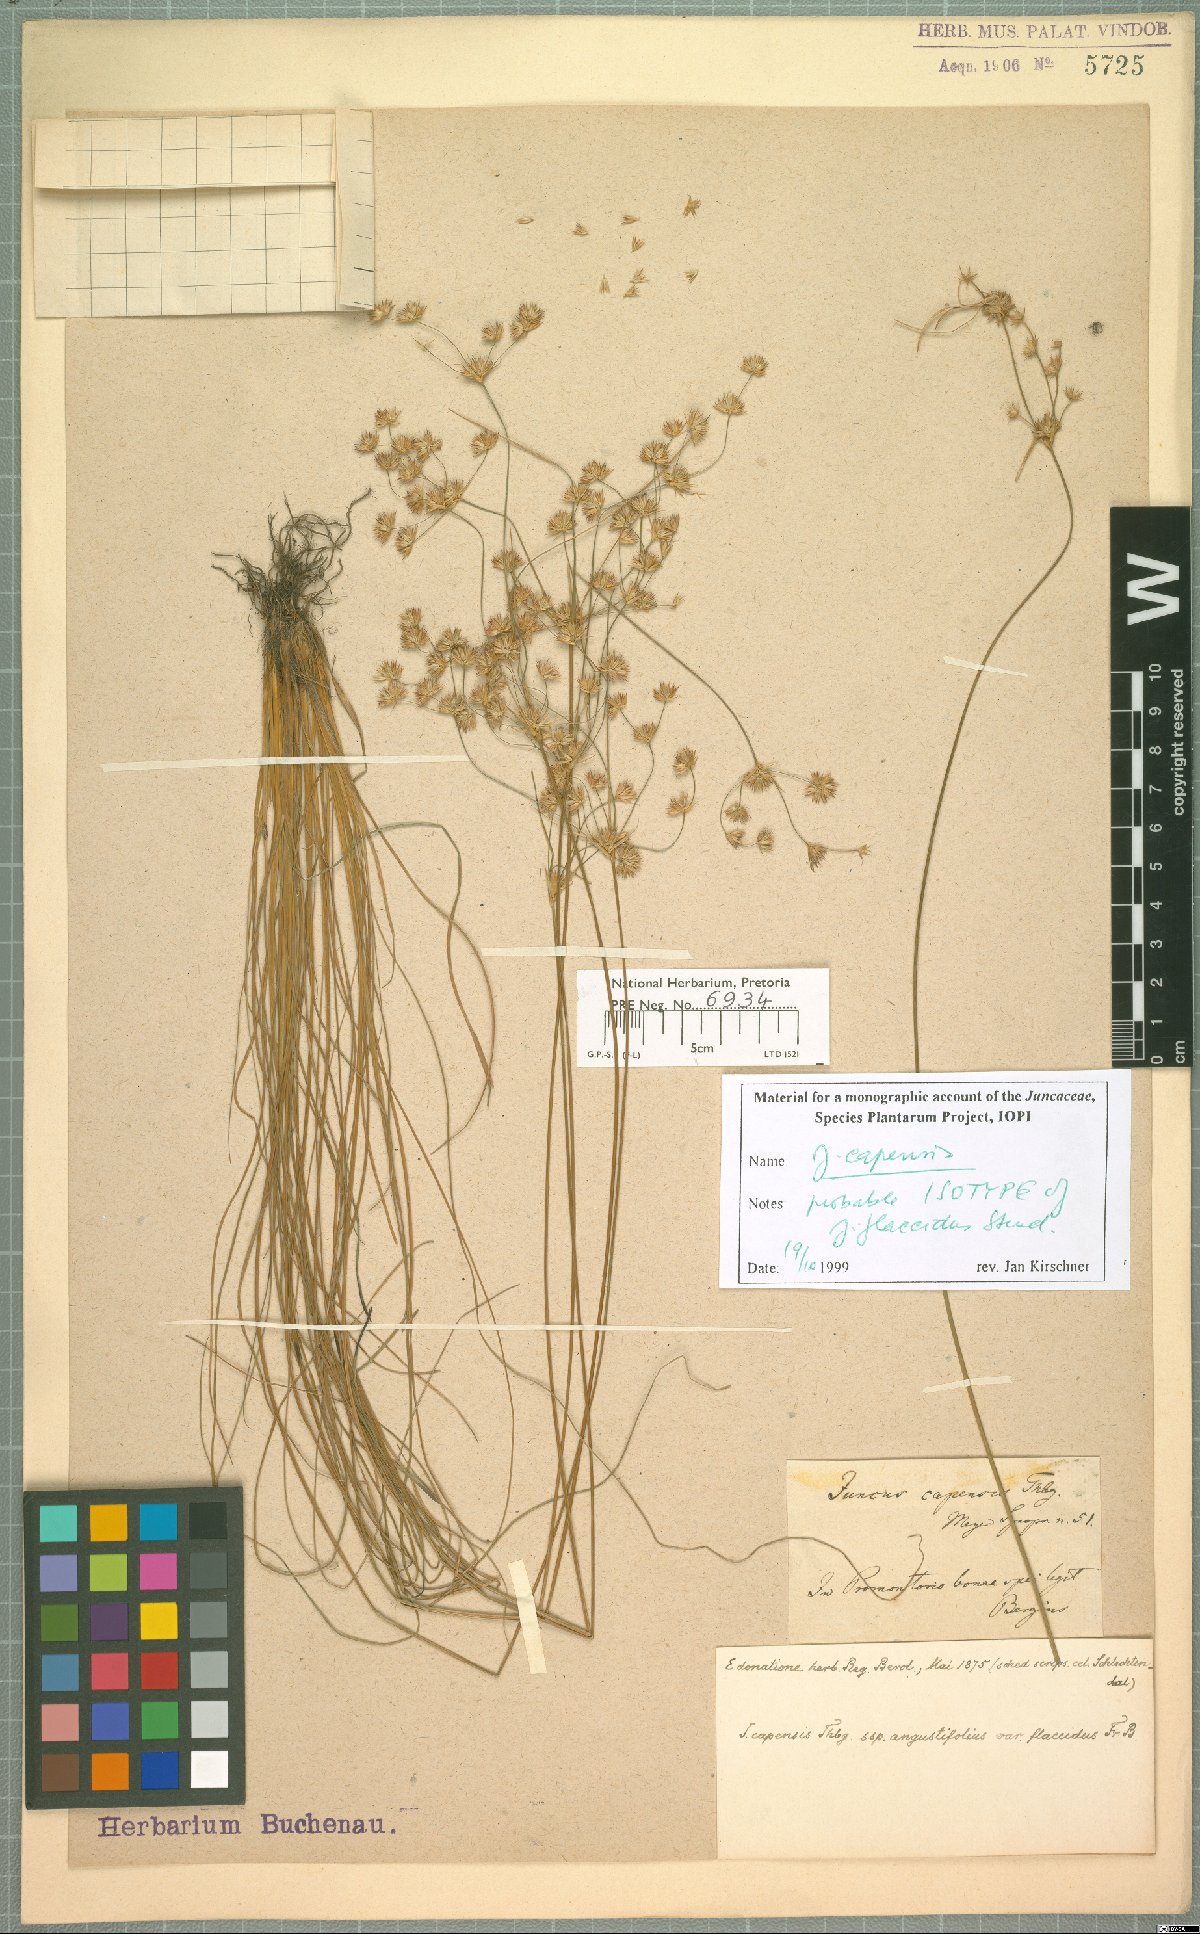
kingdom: Plantae
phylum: Tracheophyta
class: Liliopsida
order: Poales
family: Juncaceae
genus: Juncus
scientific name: Juncus capensis
